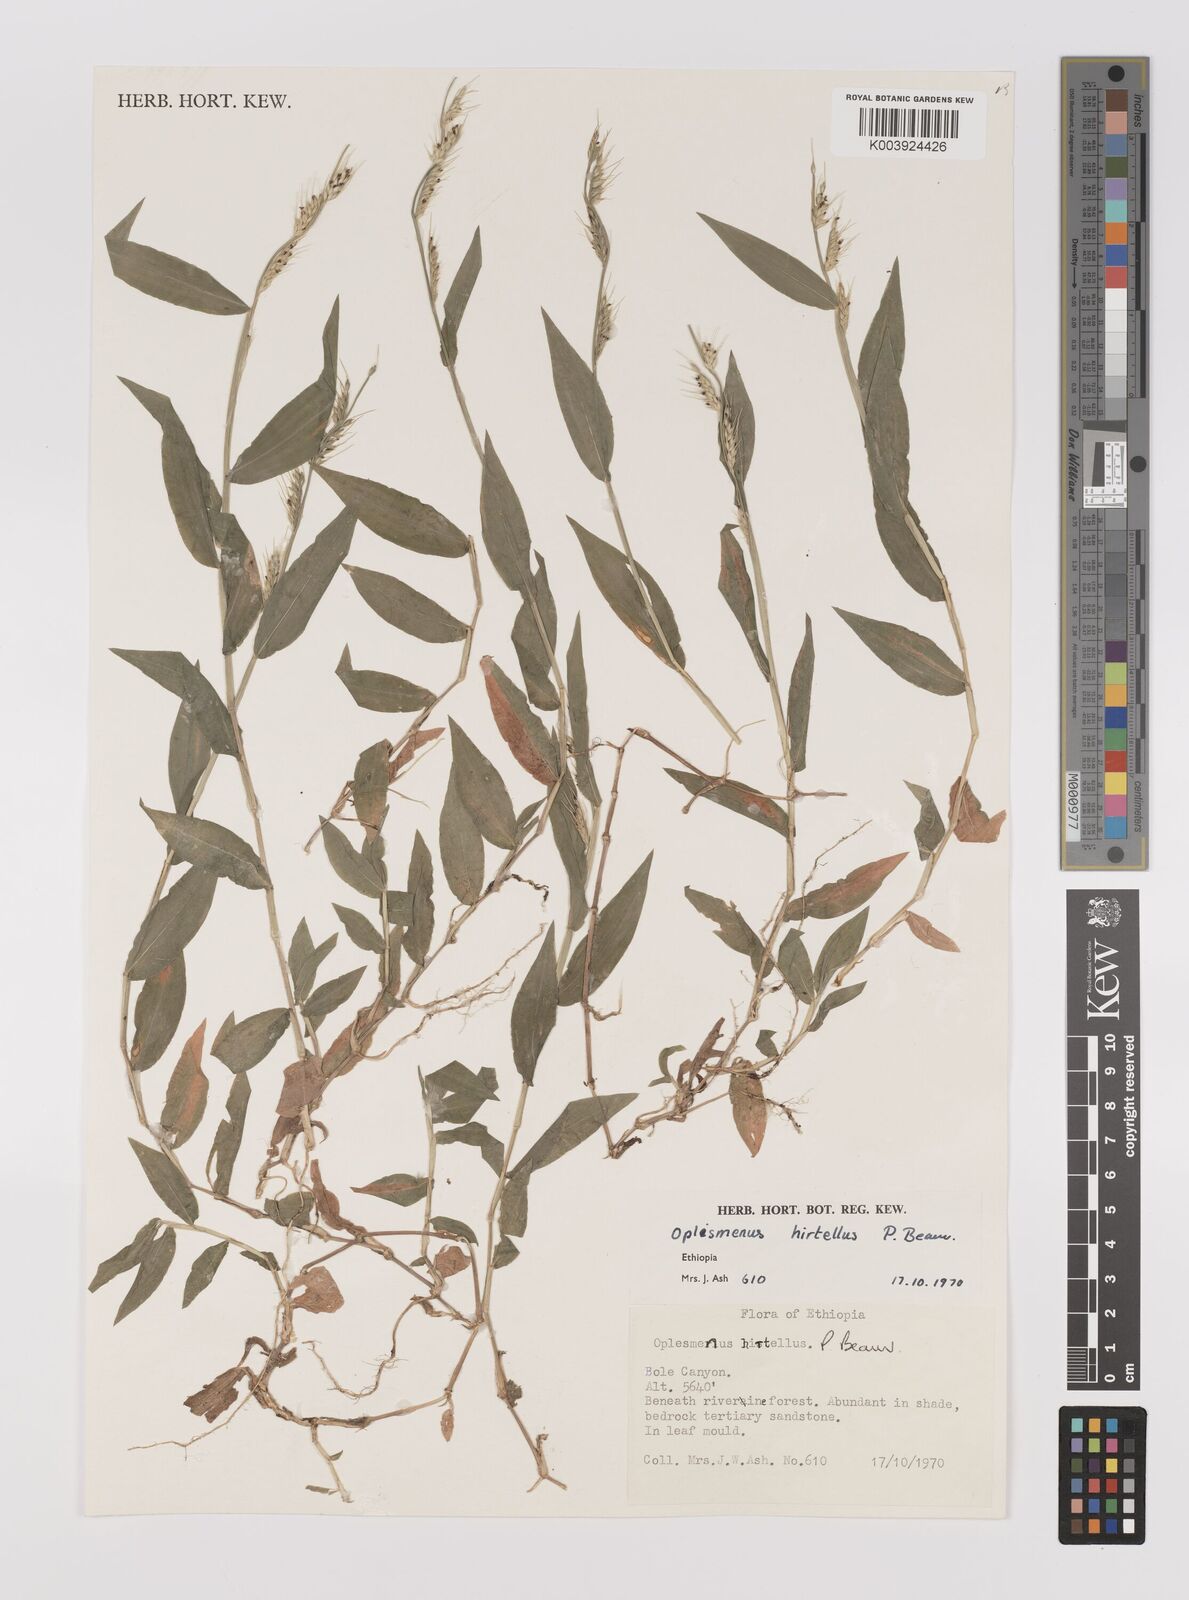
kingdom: Plantae
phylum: Tracheophyta
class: Liliopsida
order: Poales
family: Poaceae
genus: Oplismenus
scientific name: Oplismenus hirtellus
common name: Basketgrass
